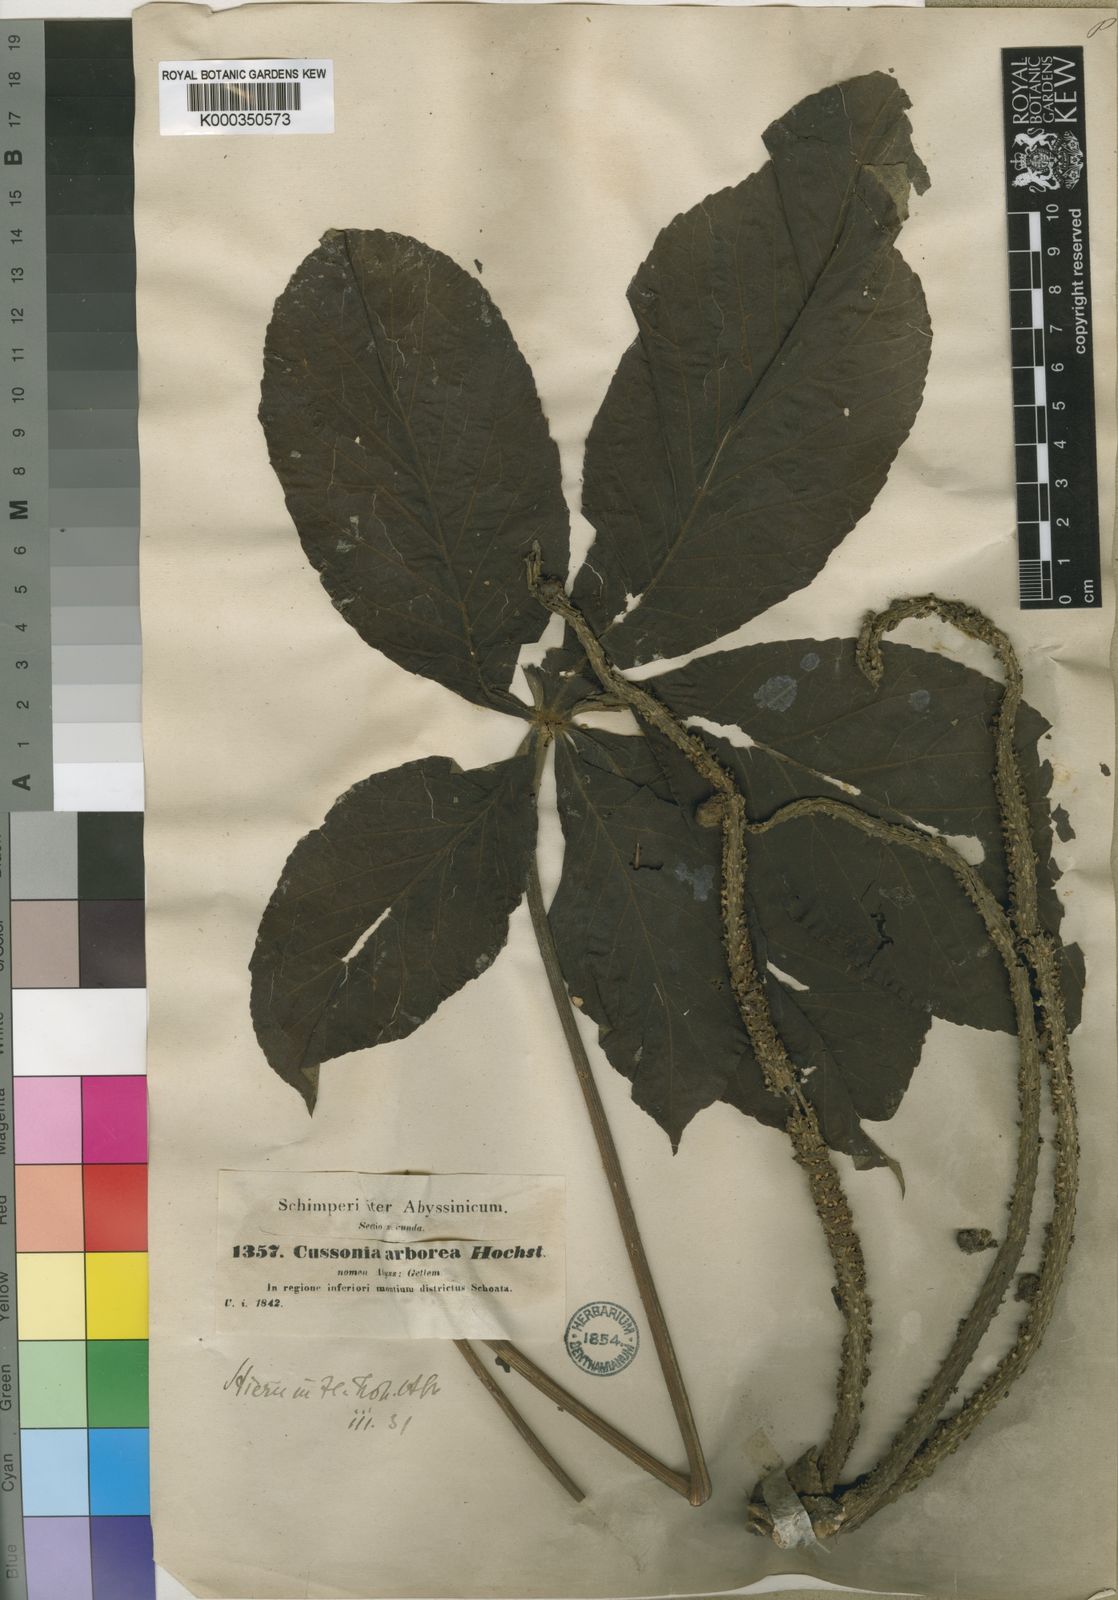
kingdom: Plantae
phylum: Tracheophyta
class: Magnoliopsida
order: Apiales
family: Araliaceae
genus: Cussonia
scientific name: Cussonia arborea
